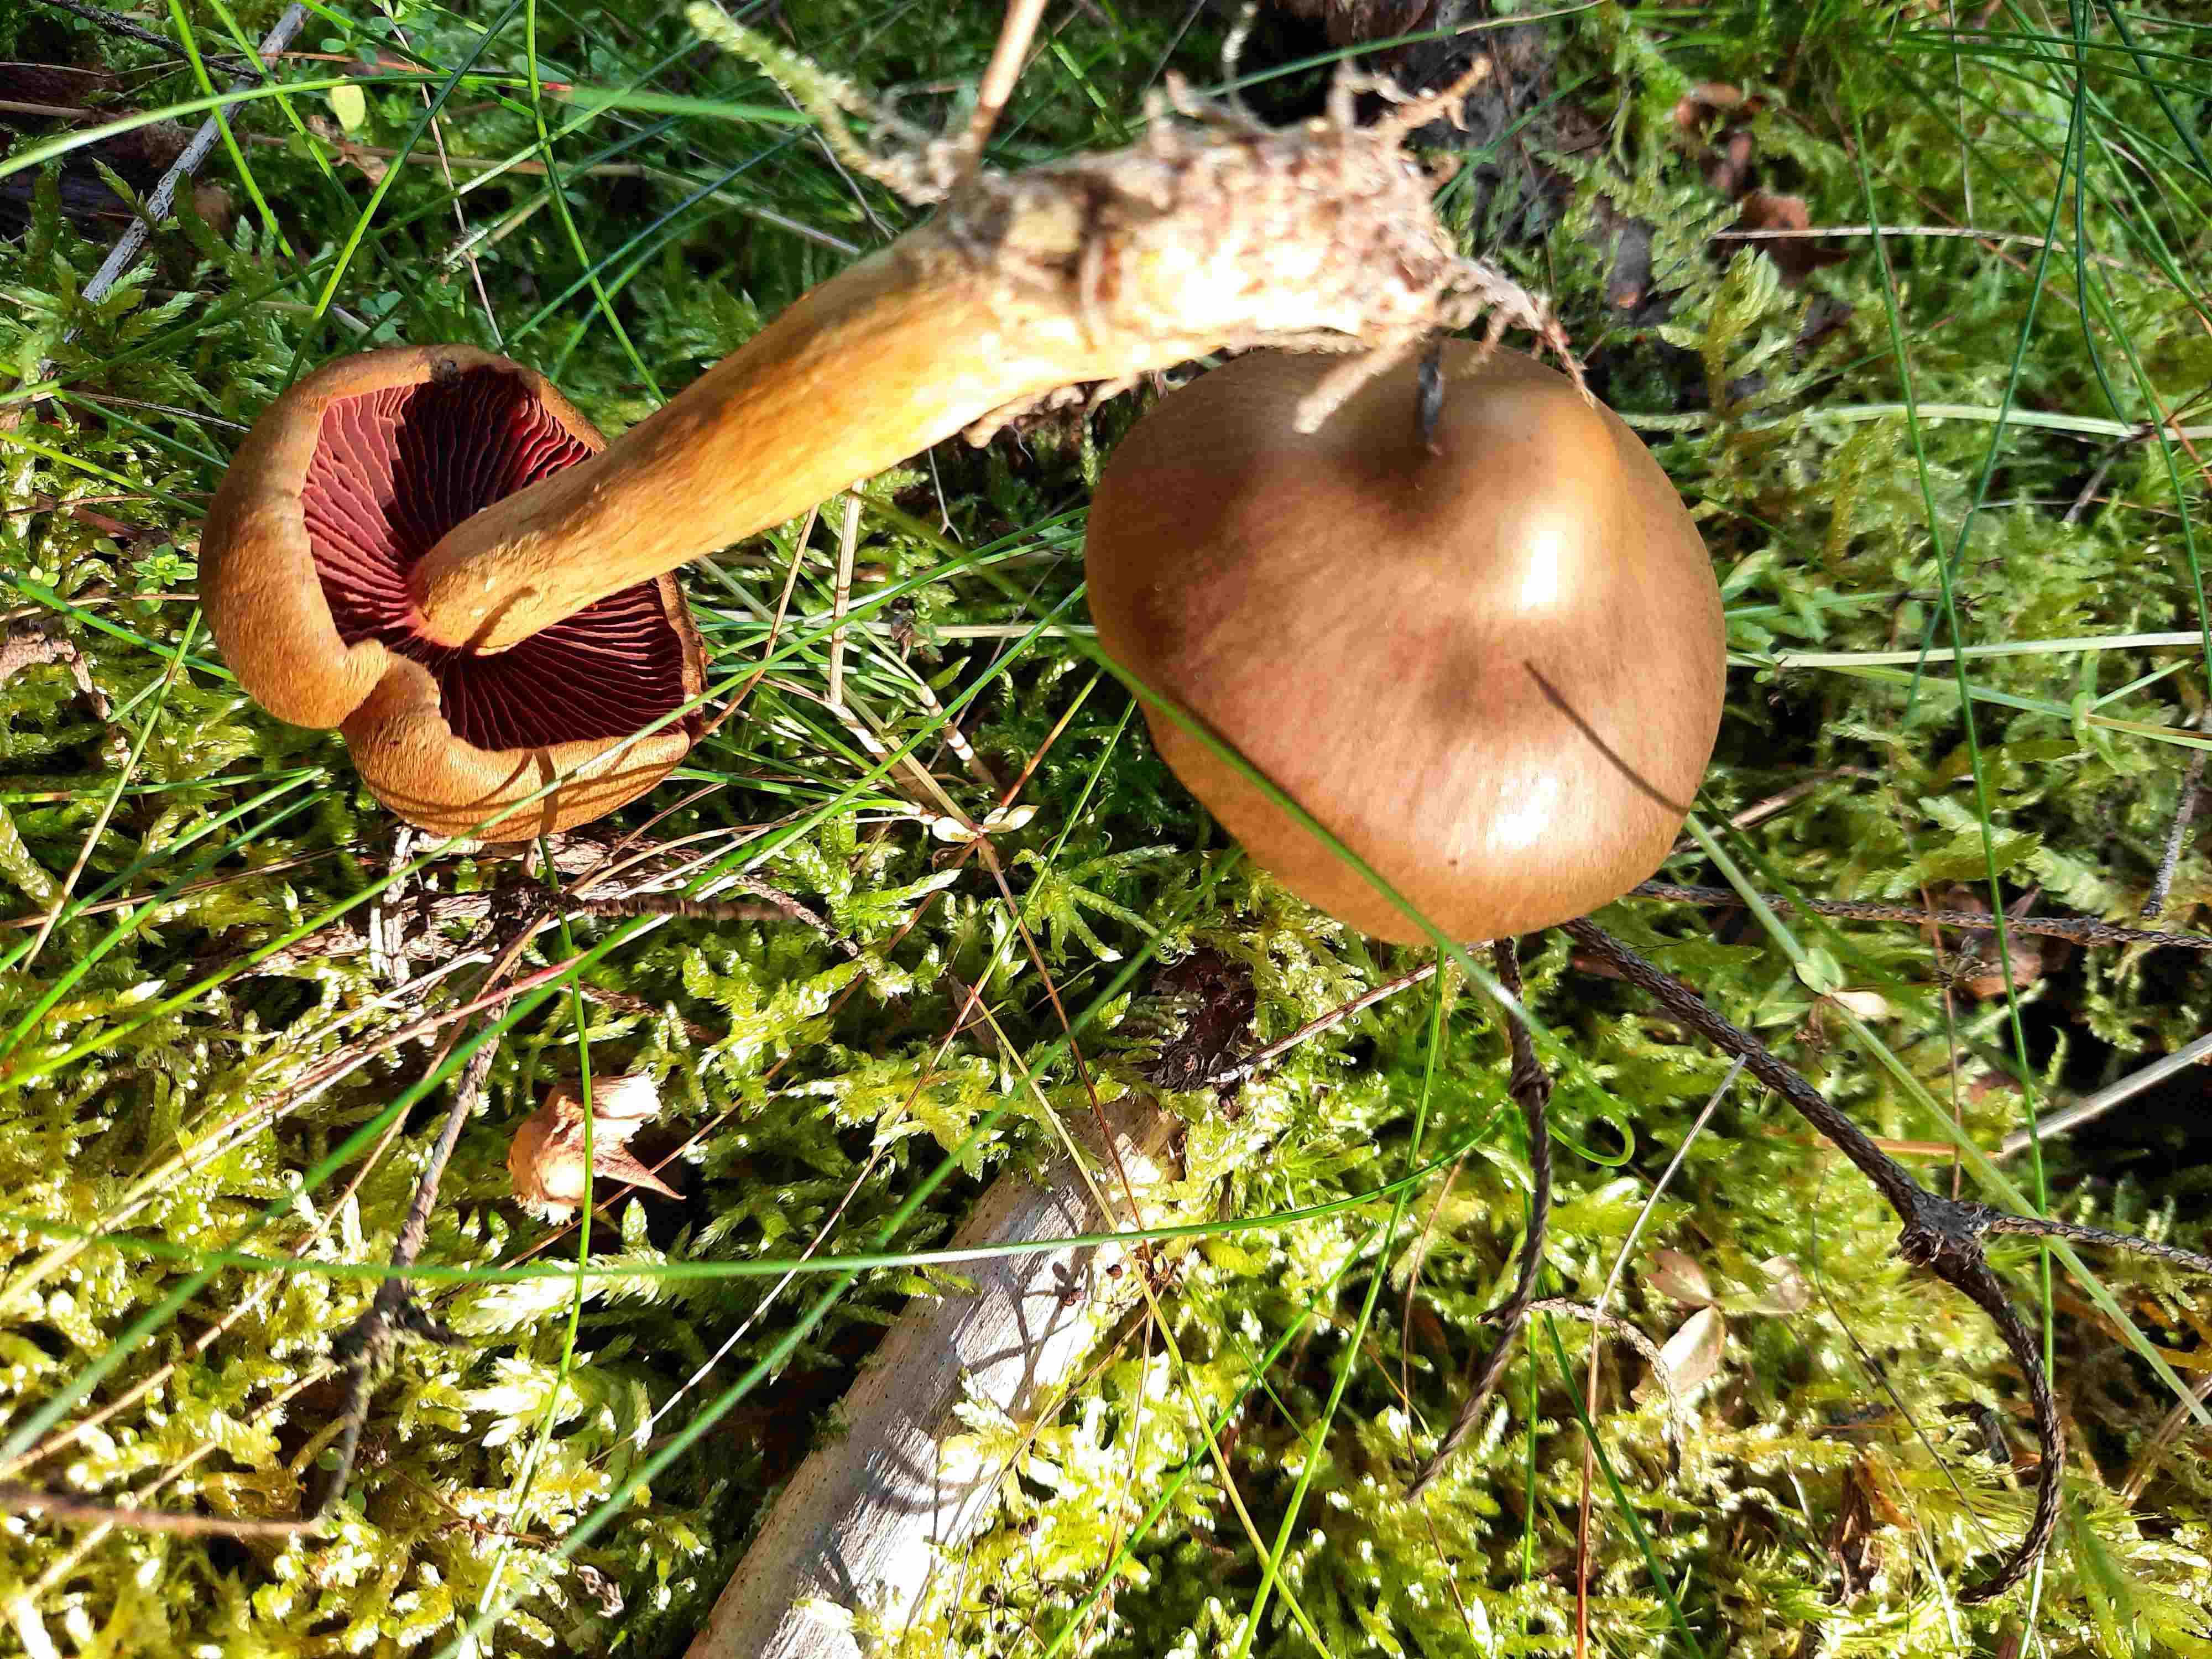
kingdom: Fungi
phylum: Basidiomycota
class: Agaricomycetes
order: Agaricales
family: Cortinariaceae
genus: Cortinarius
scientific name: Cortinarius
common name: cinnoberbladet slørhat
